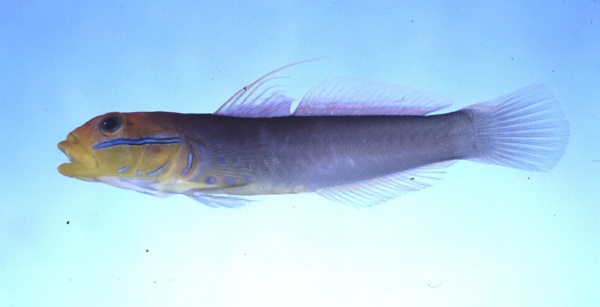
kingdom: Animalia
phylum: Chordata
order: Perciformes
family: Gobiidae
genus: Valenciennea
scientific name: Valenciennea strigata
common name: Blueband goby
